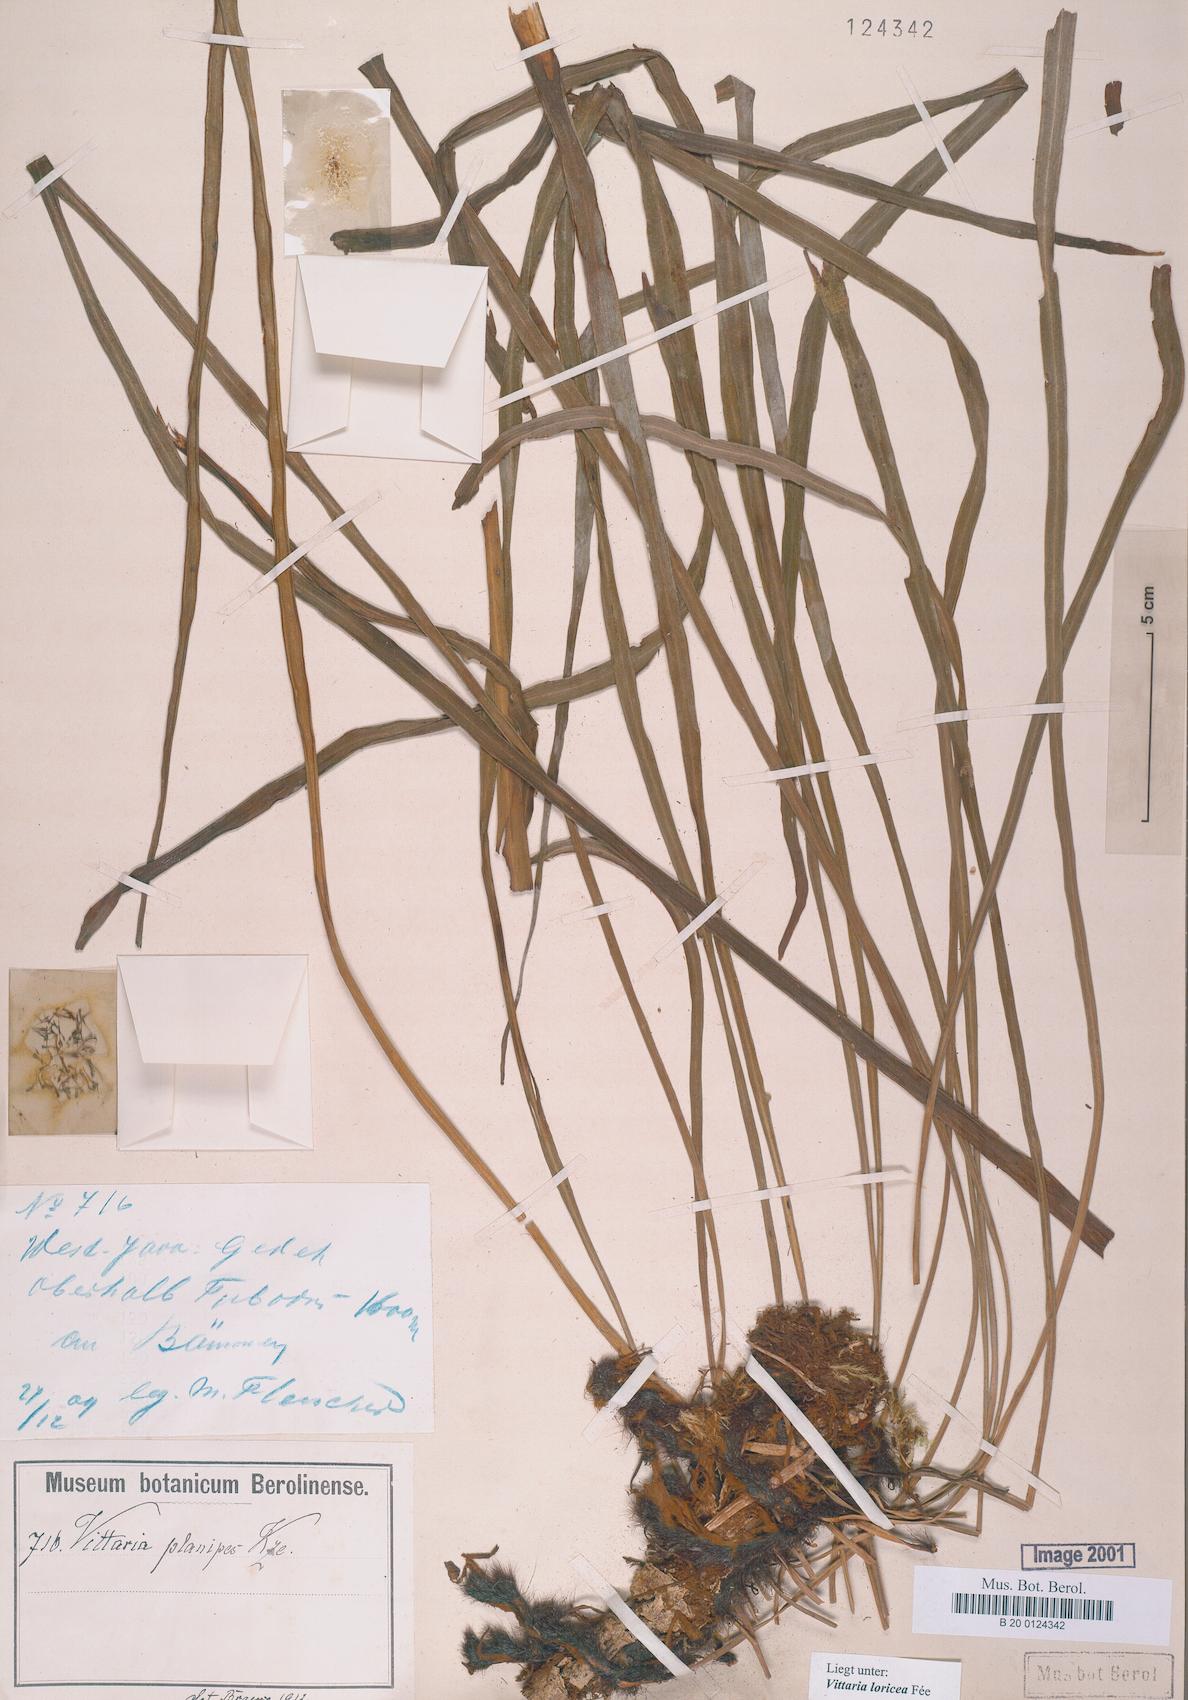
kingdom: Plantae
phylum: Tracheophyta
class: Polypodiopsida
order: Polypodiales
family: Pteridaceae
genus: Haplopteris
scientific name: Haplopteris zosterifolia
